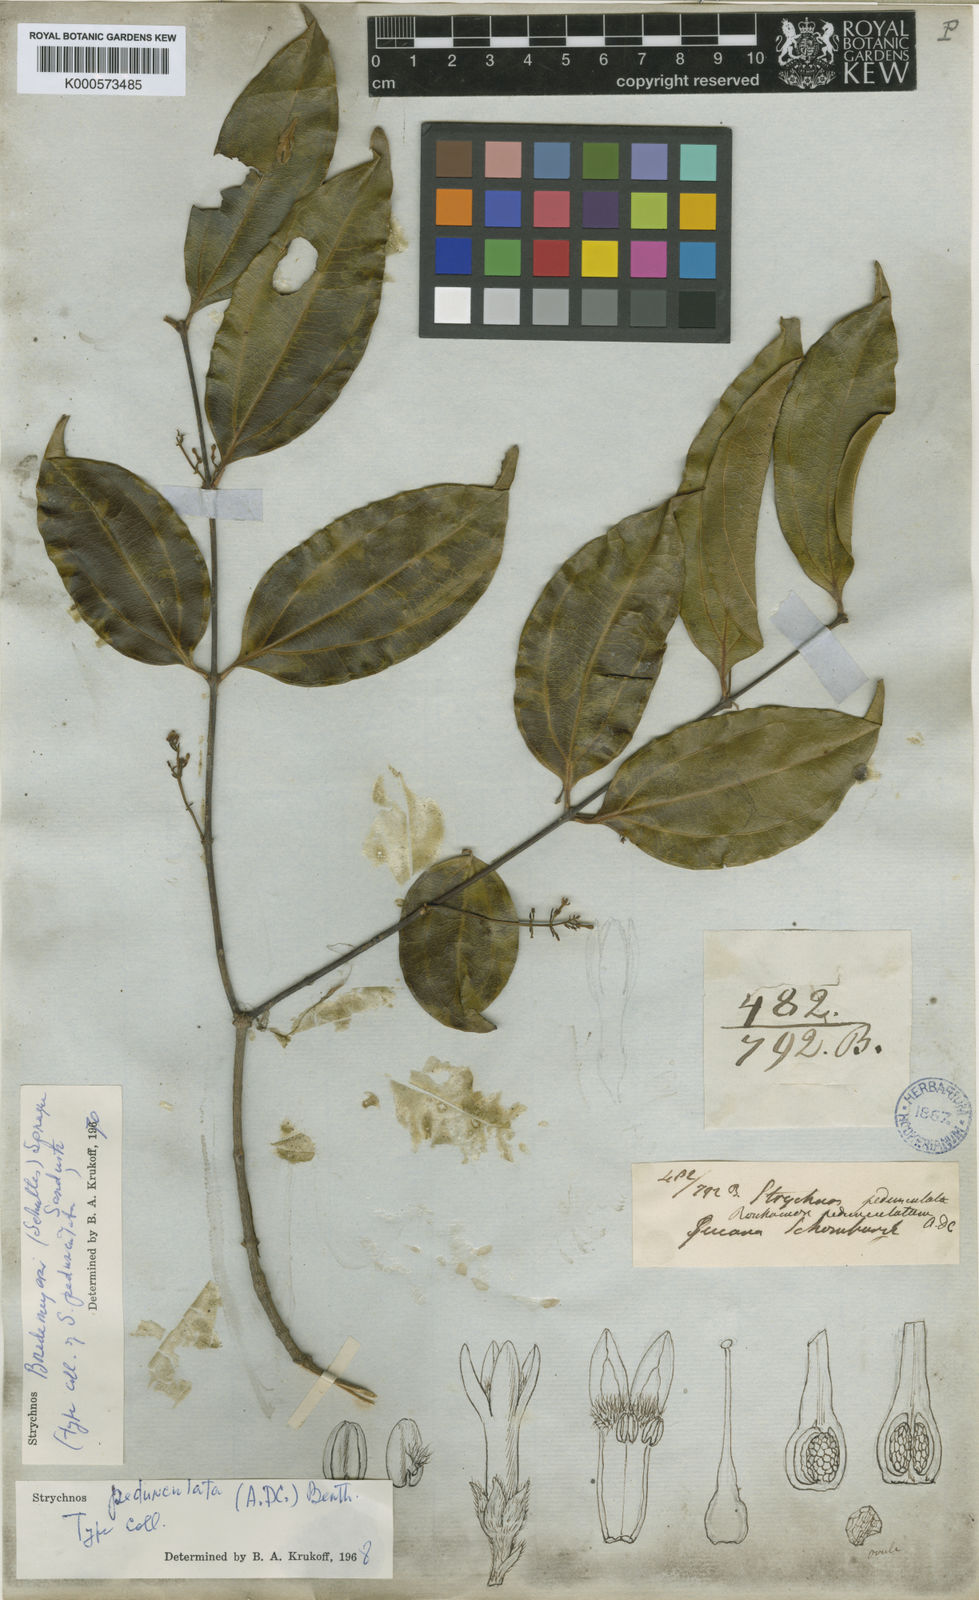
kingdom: Plantae
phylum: Tracheophyta
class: Magnoliopsida
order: Gentianales
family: Loganiaceae
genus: Strychnos
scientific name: Strychnos bredemeyeri
